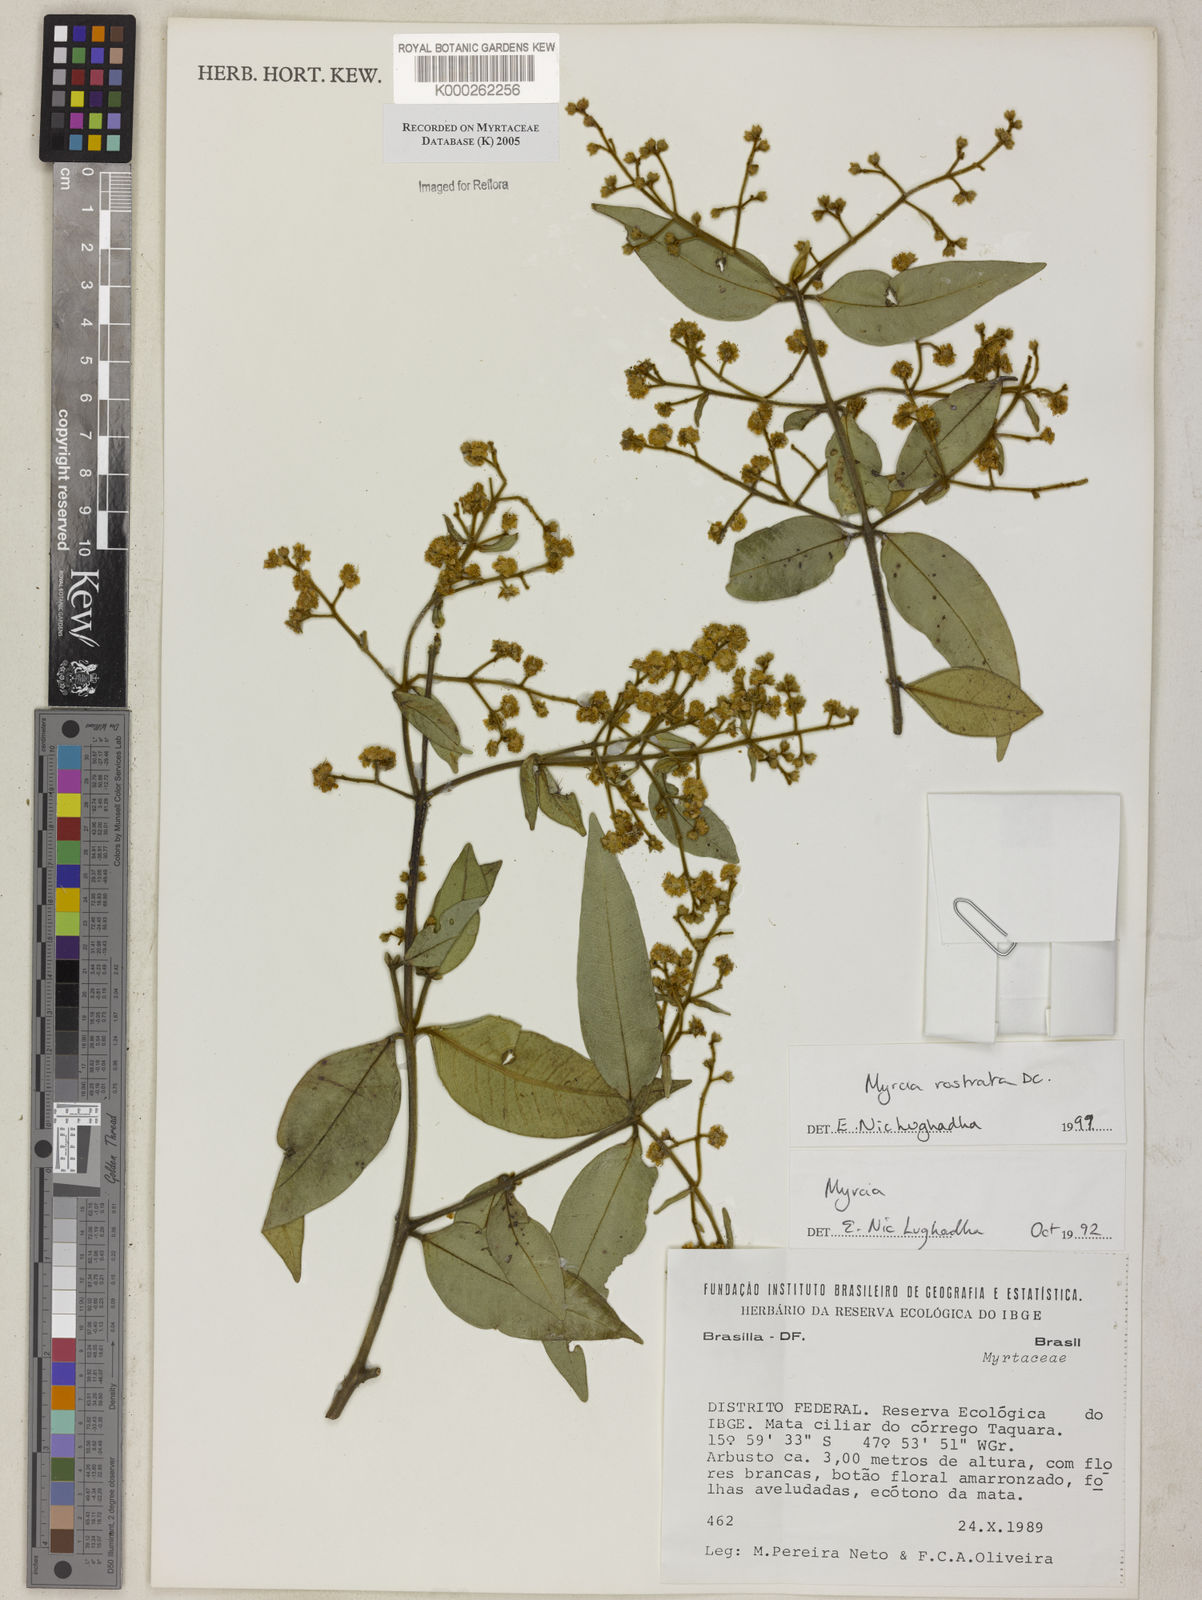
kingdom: Plantae
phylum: Tracheophyta
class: Magnoliopsida
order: Myrtales
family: Myrtaceae
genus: Myrcia
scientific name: Myrcia splendens
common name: Surinam cherry
